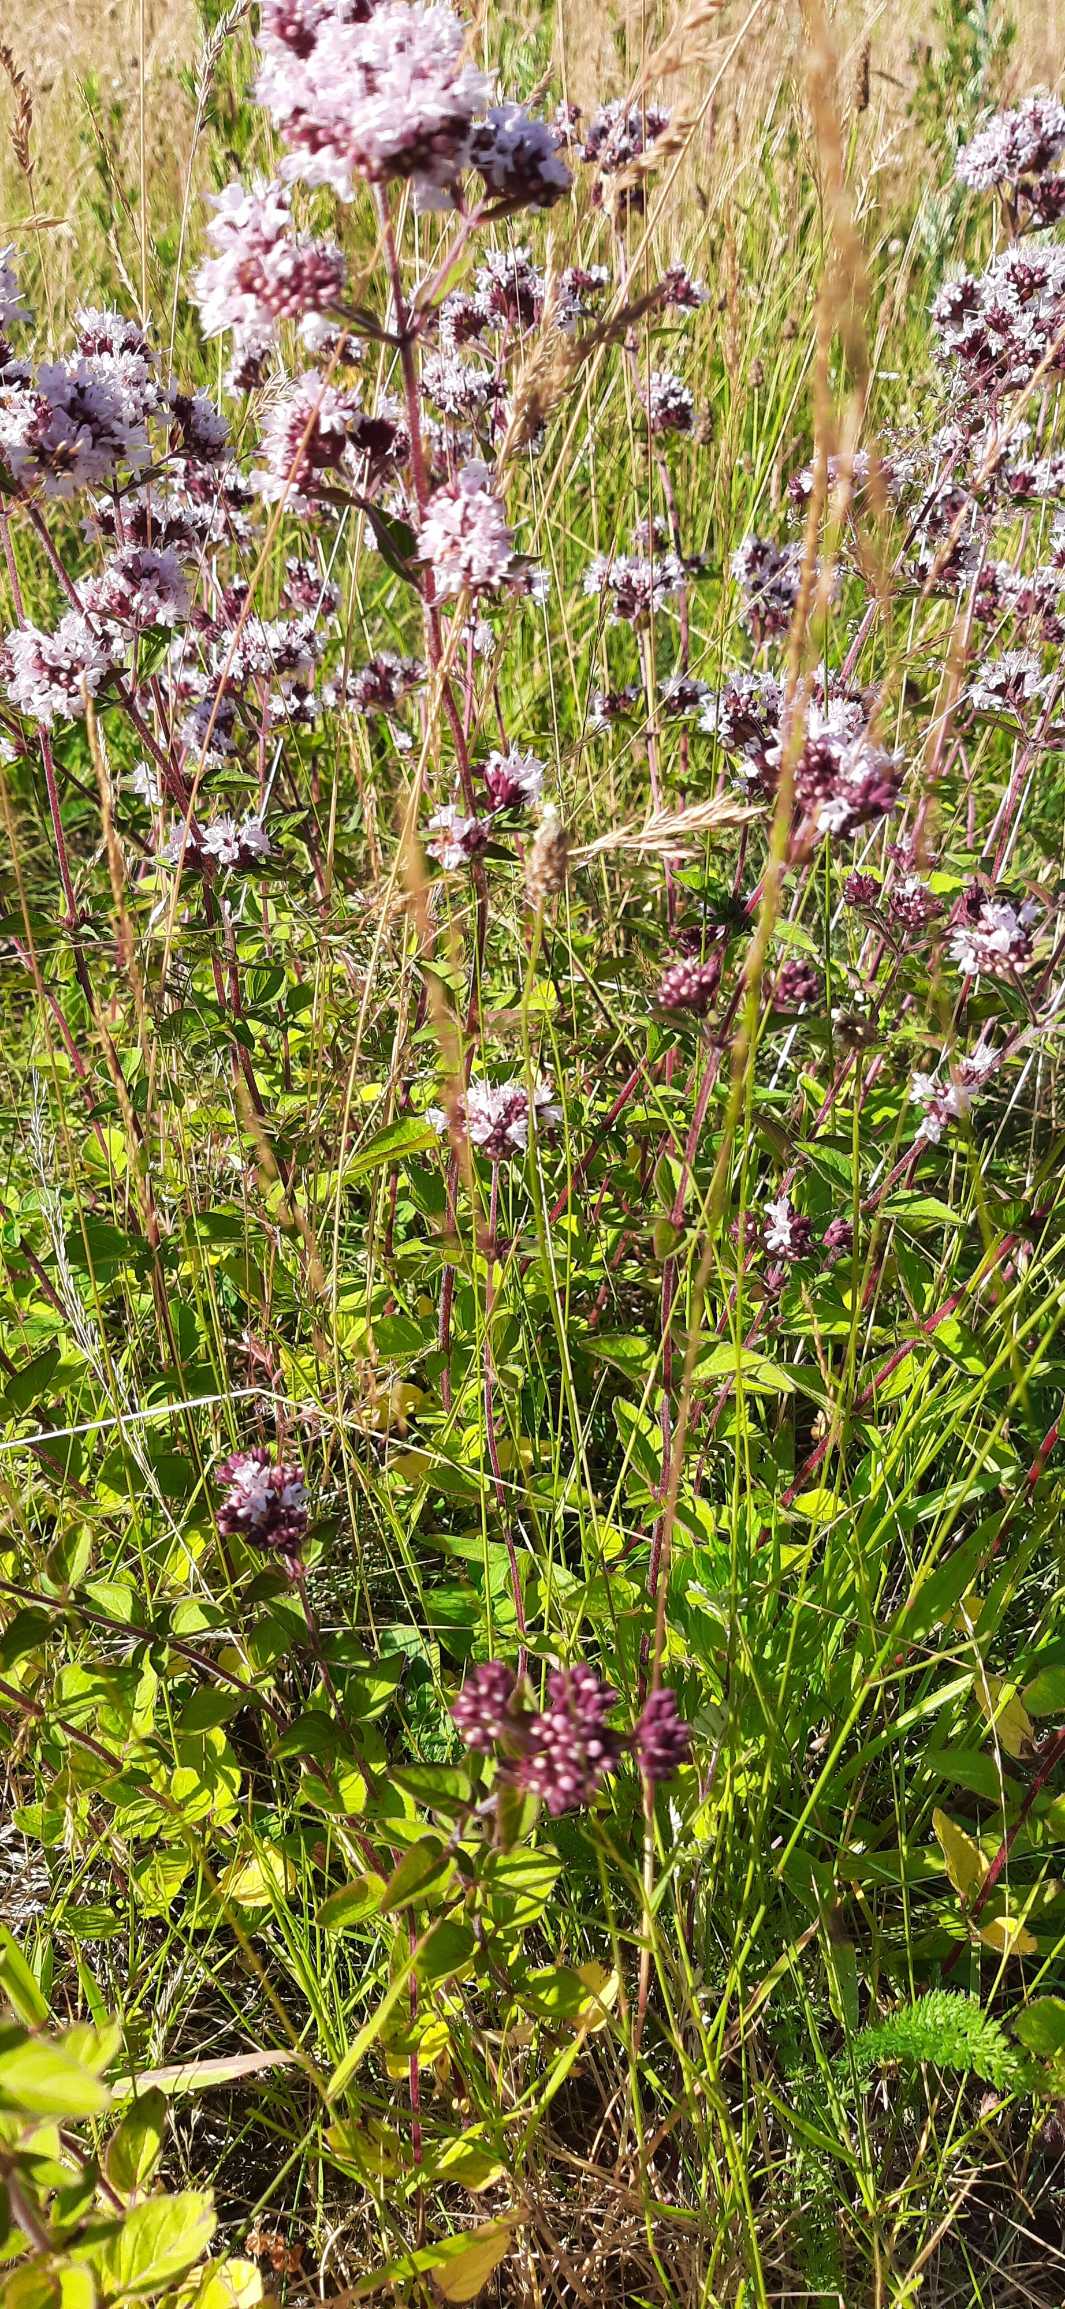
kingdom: Plantae
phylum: Tracheophyta
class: Magnoliopsida
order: Lamiales
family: Lamiaceae
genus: Origanum
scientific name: Origanum vulgare
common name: Merian
